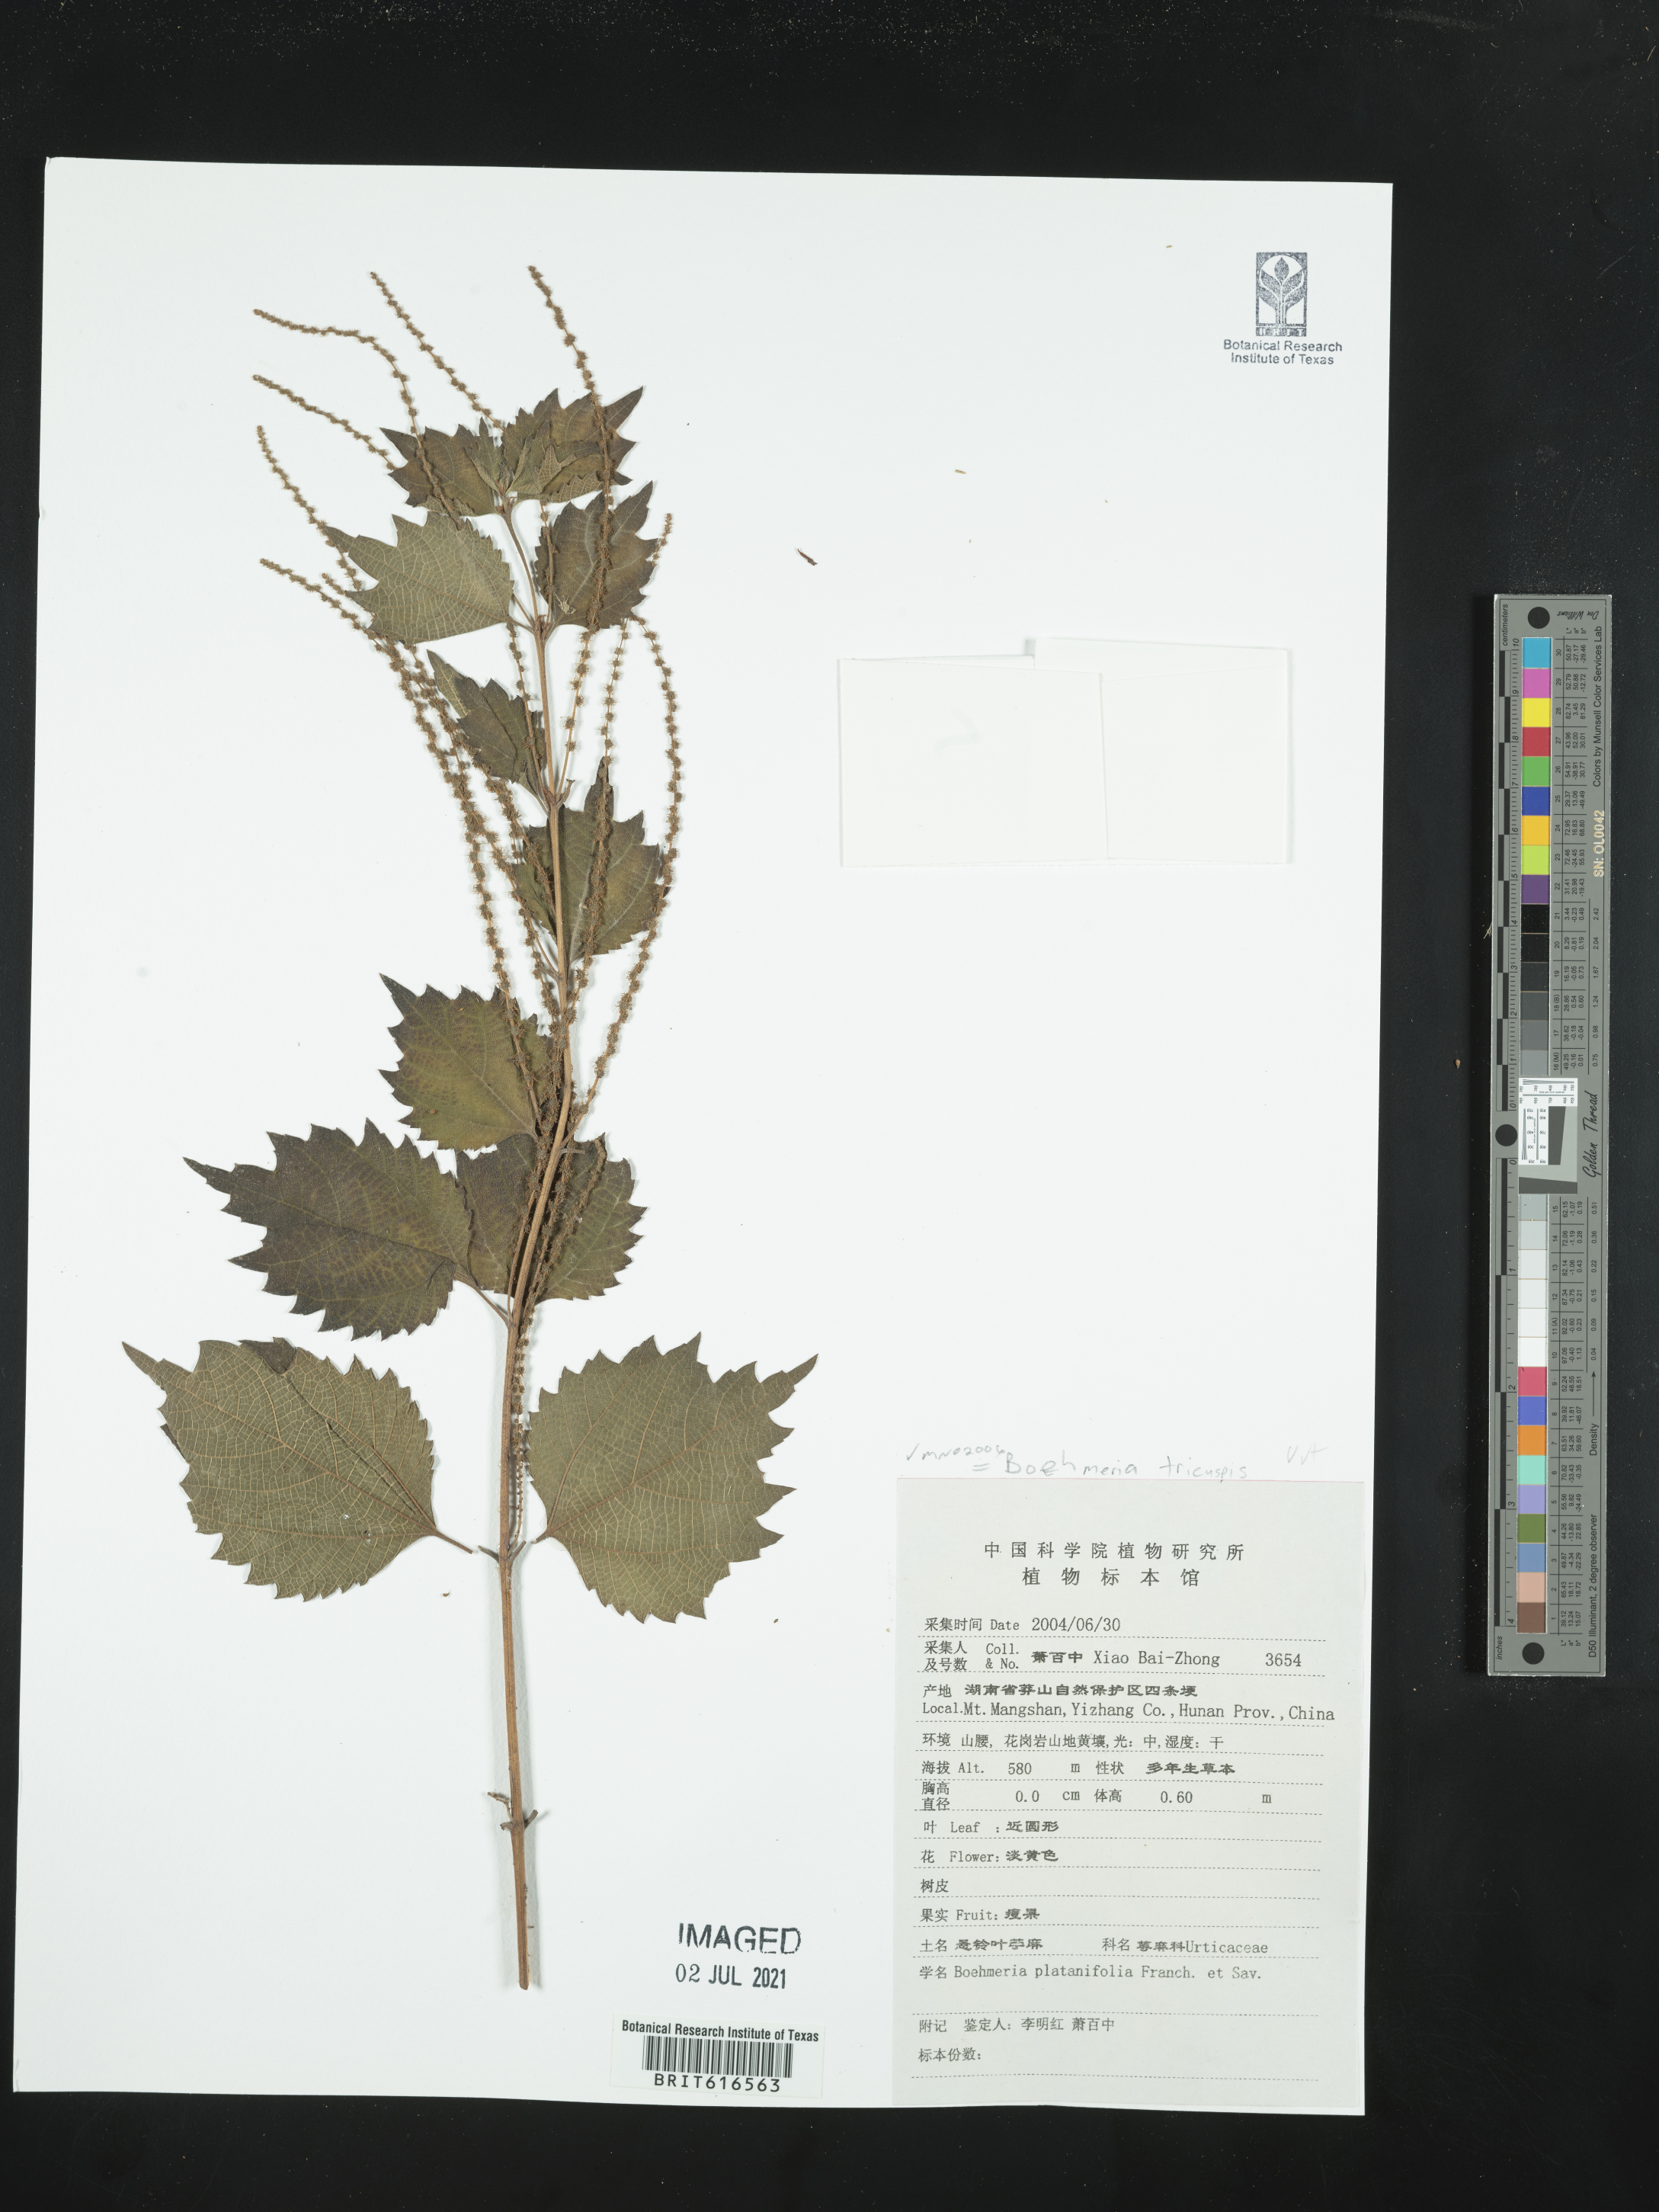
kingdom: Plantae
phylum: Tracheophyta
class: Magnoliopsida
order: Rosales
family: Urticaceae
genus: Boehmeria
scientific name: Boehmeria japonica
